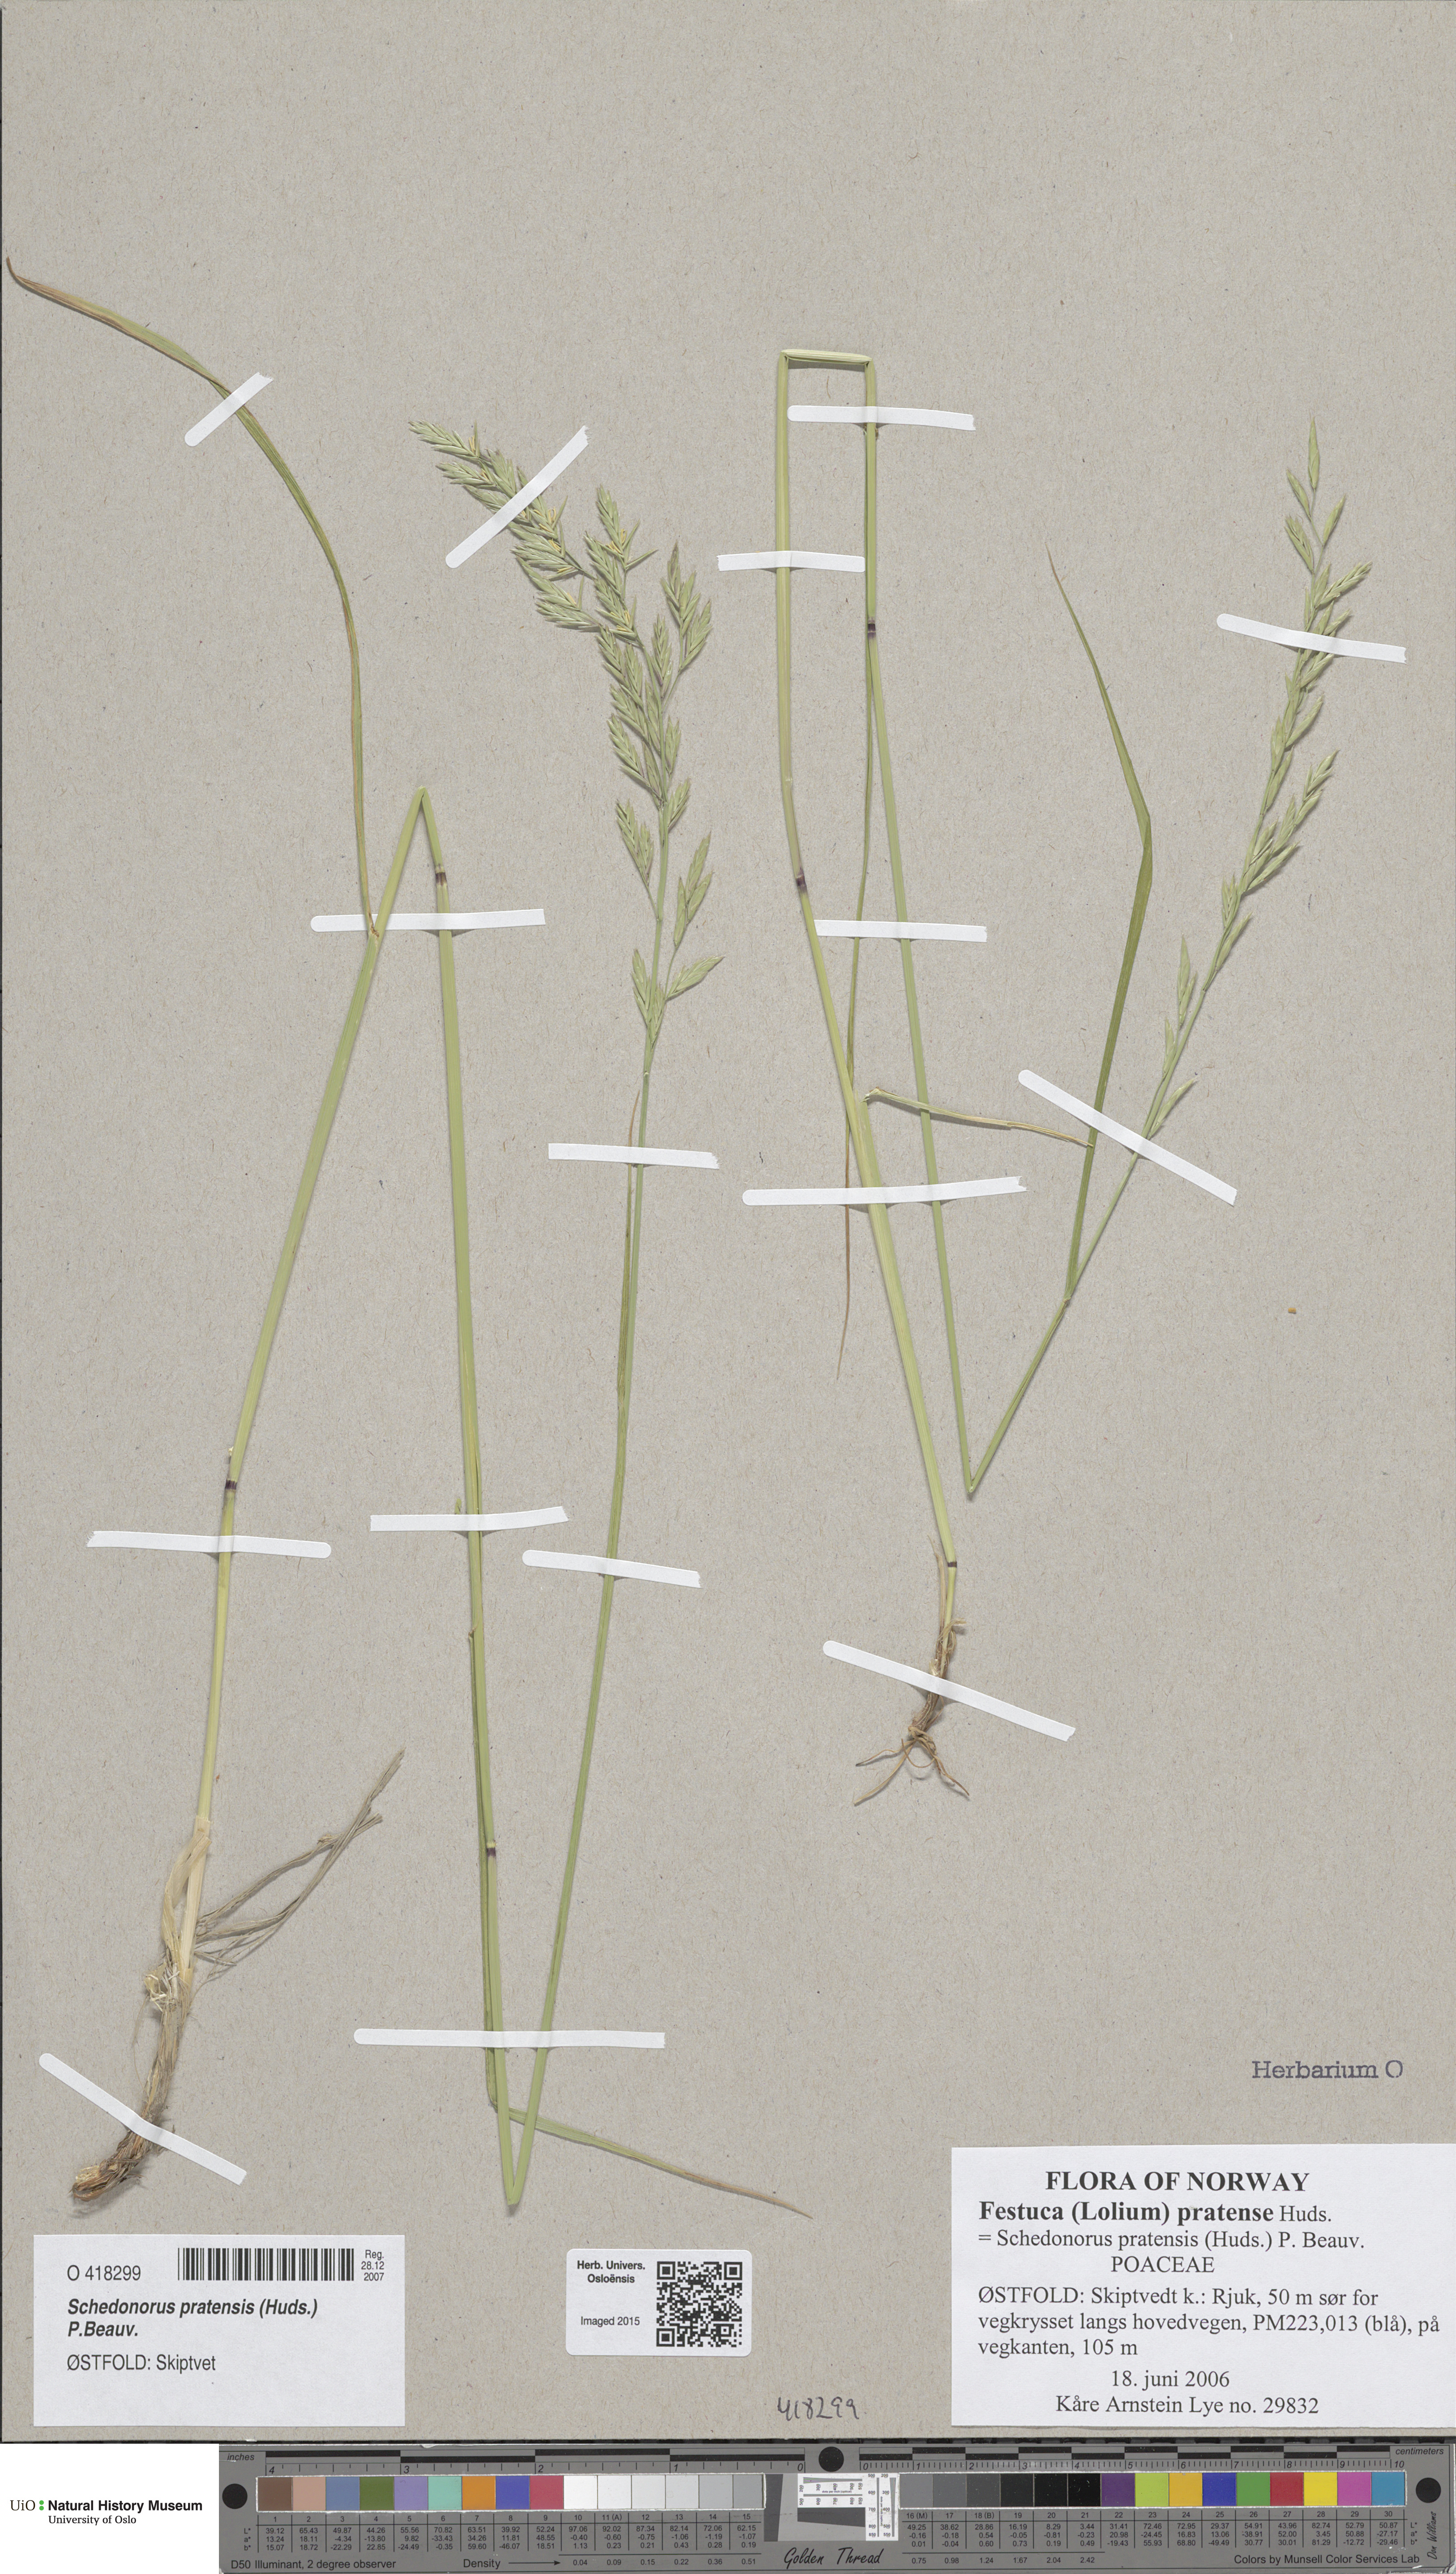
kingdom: Plantae
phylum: Tracheophyta
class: Liliopsida
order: Poales
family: Poaceae
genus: Lolium
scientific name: Lolium pratense
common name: Dover grass
